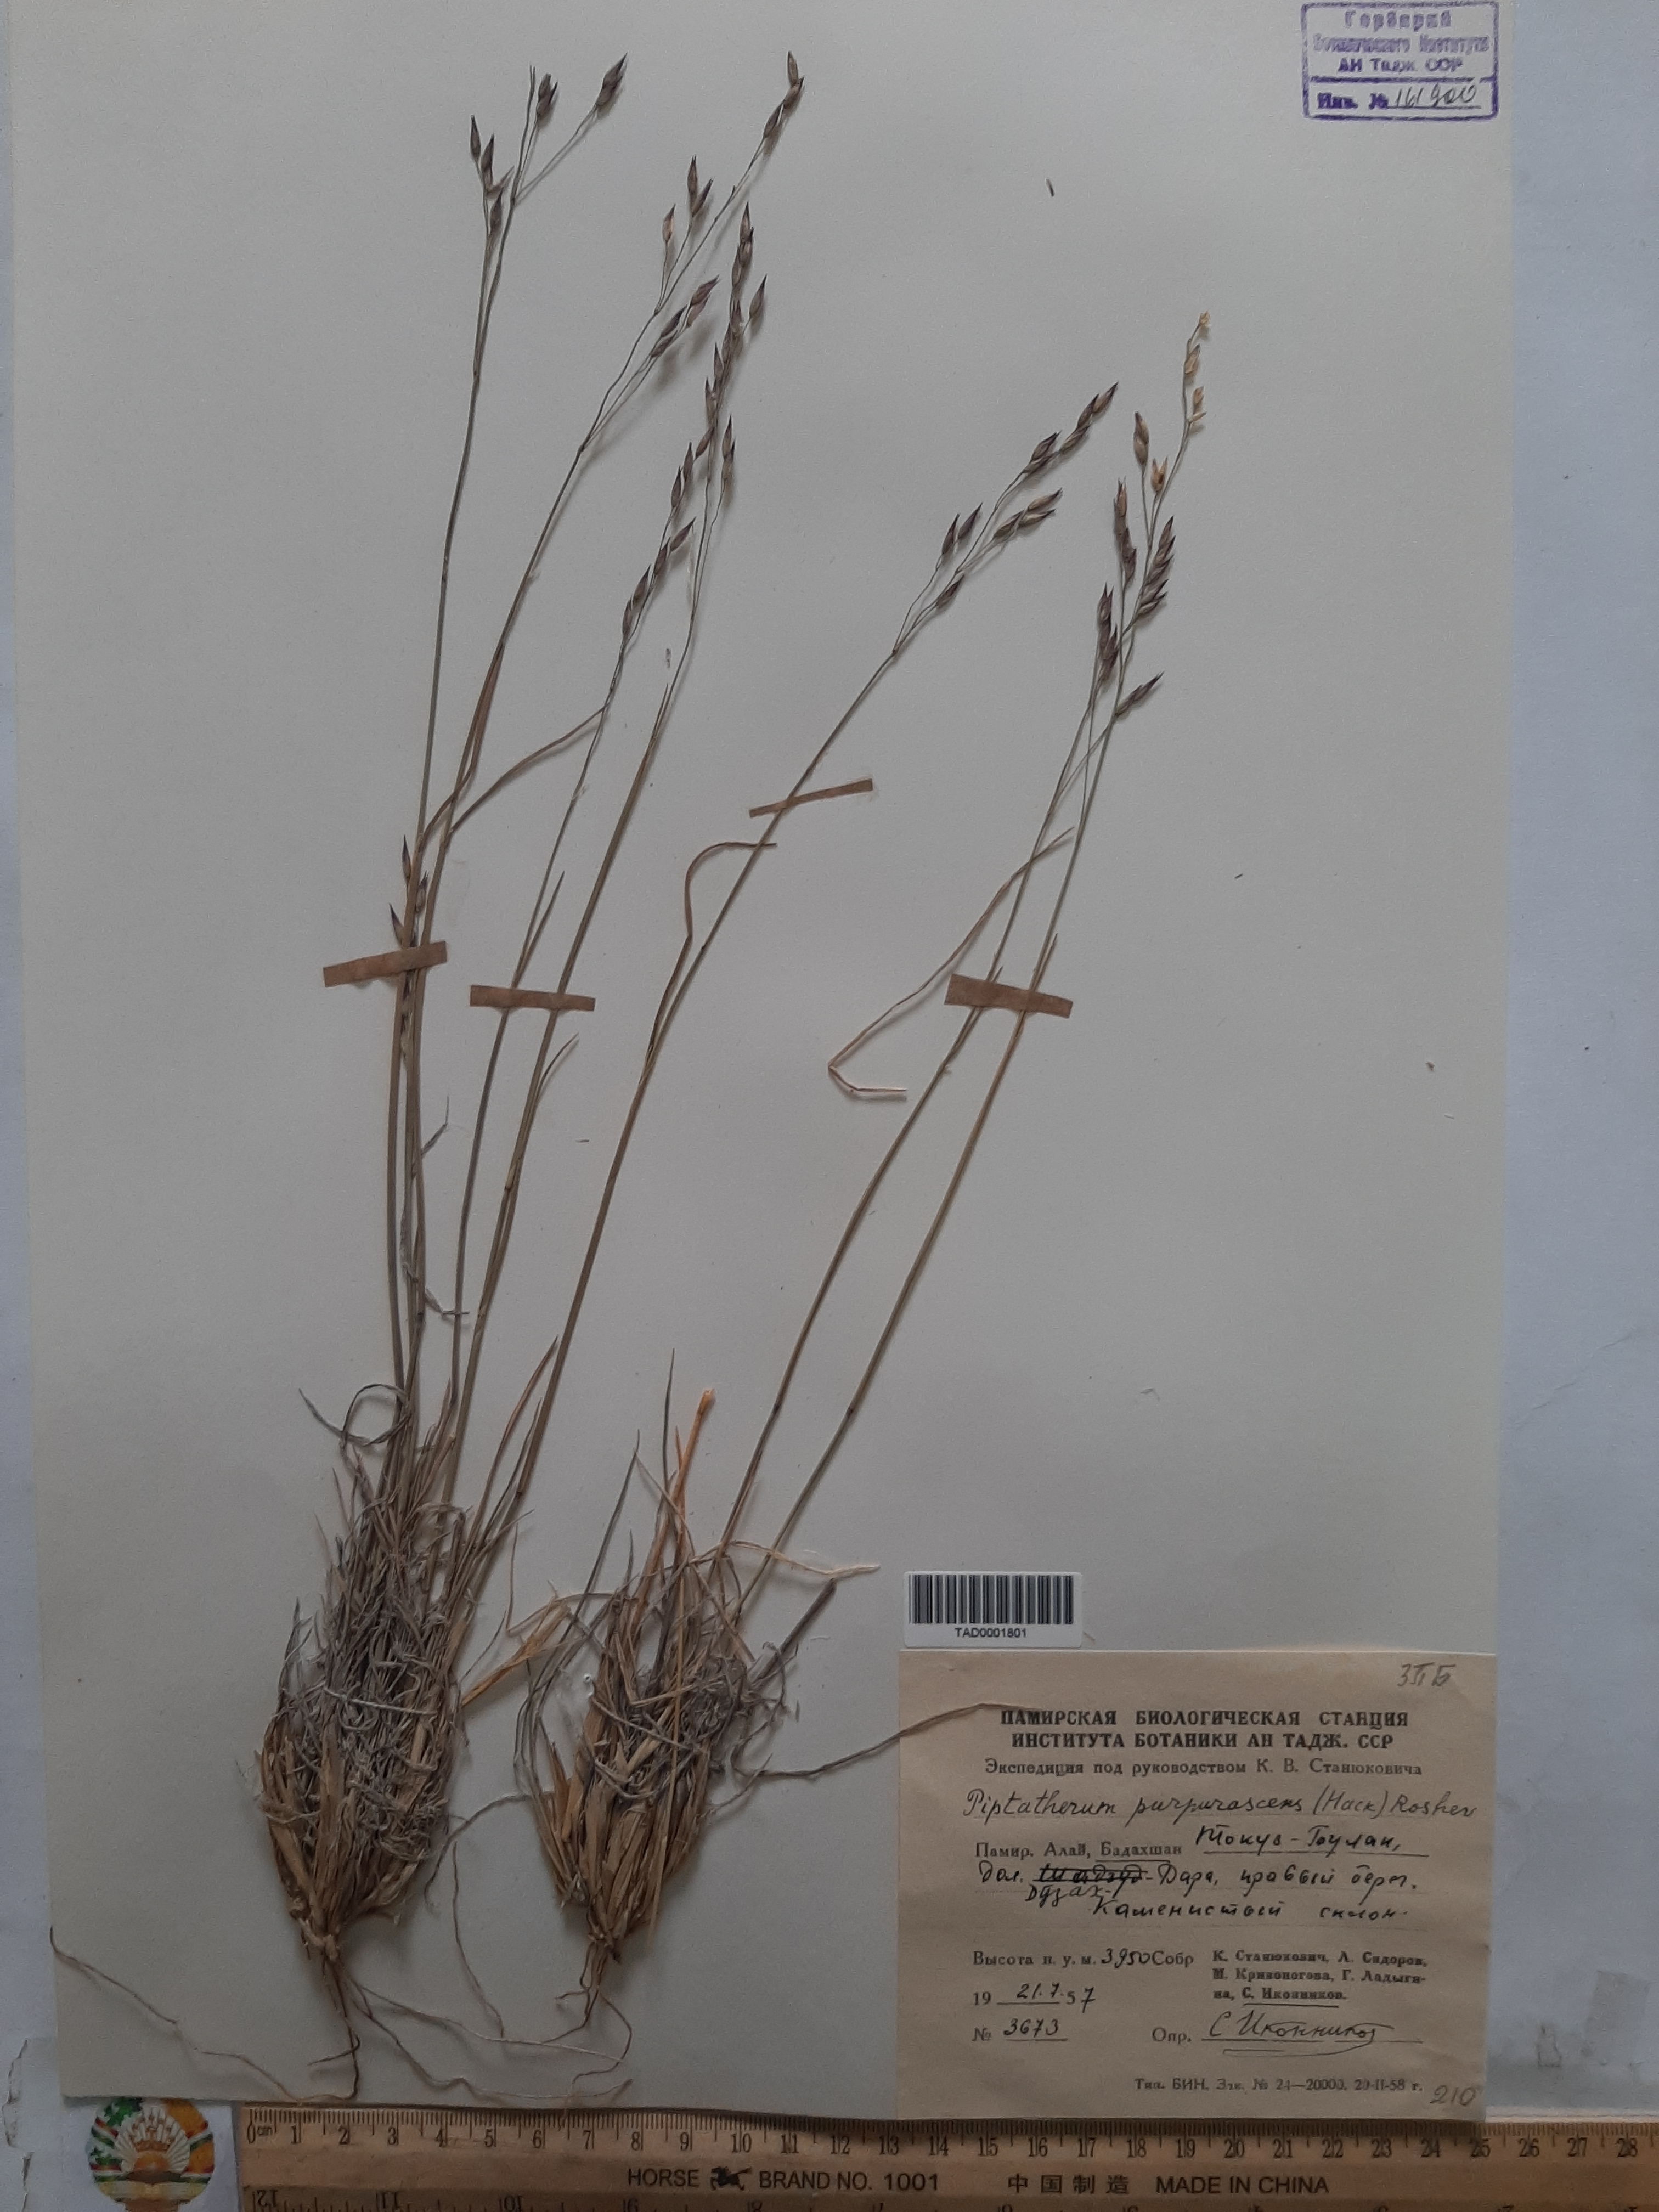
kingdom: Plantae
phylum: Tracheophyta
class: Liliopsida
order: Poales
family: Poaceae
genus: Piptatherum
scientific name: Piptatherum purpurascens
